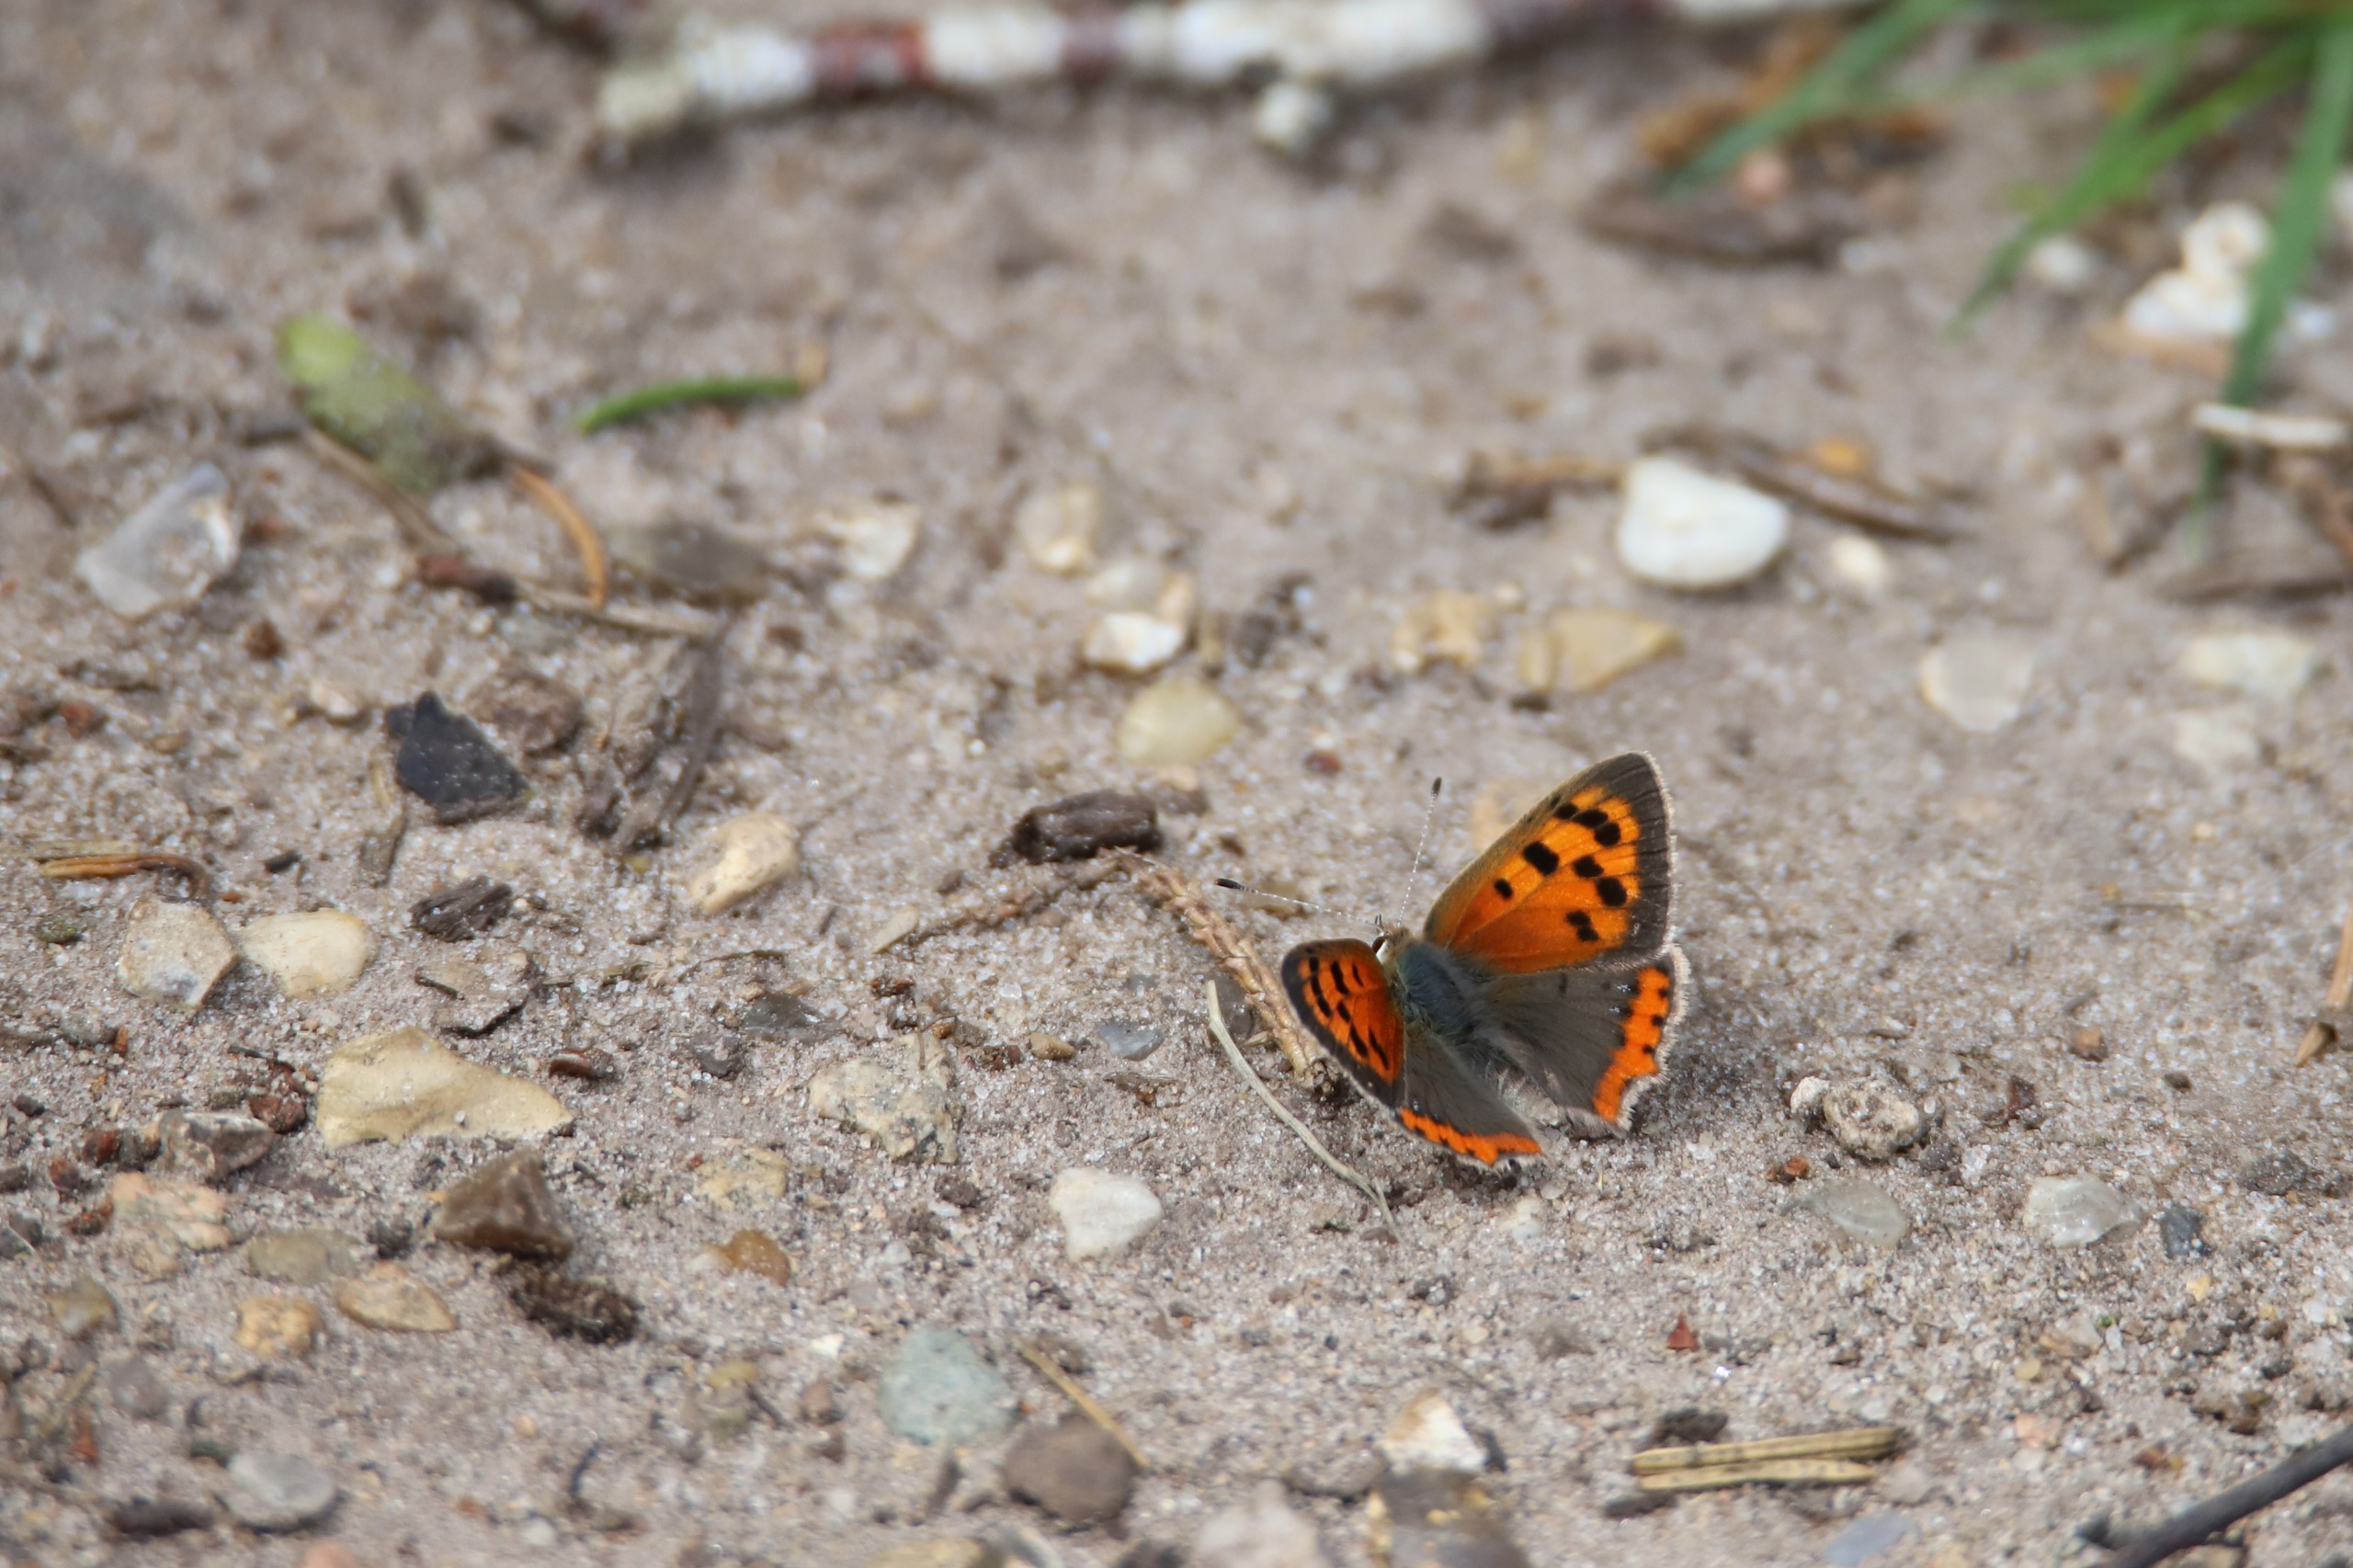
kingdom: Animalia
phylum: Arthropoda
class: Insecta
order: Lepidoptera
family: Lycaenidae
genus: Lycaena
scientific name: Lycaena phlaeas
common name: Lille ildfugl
